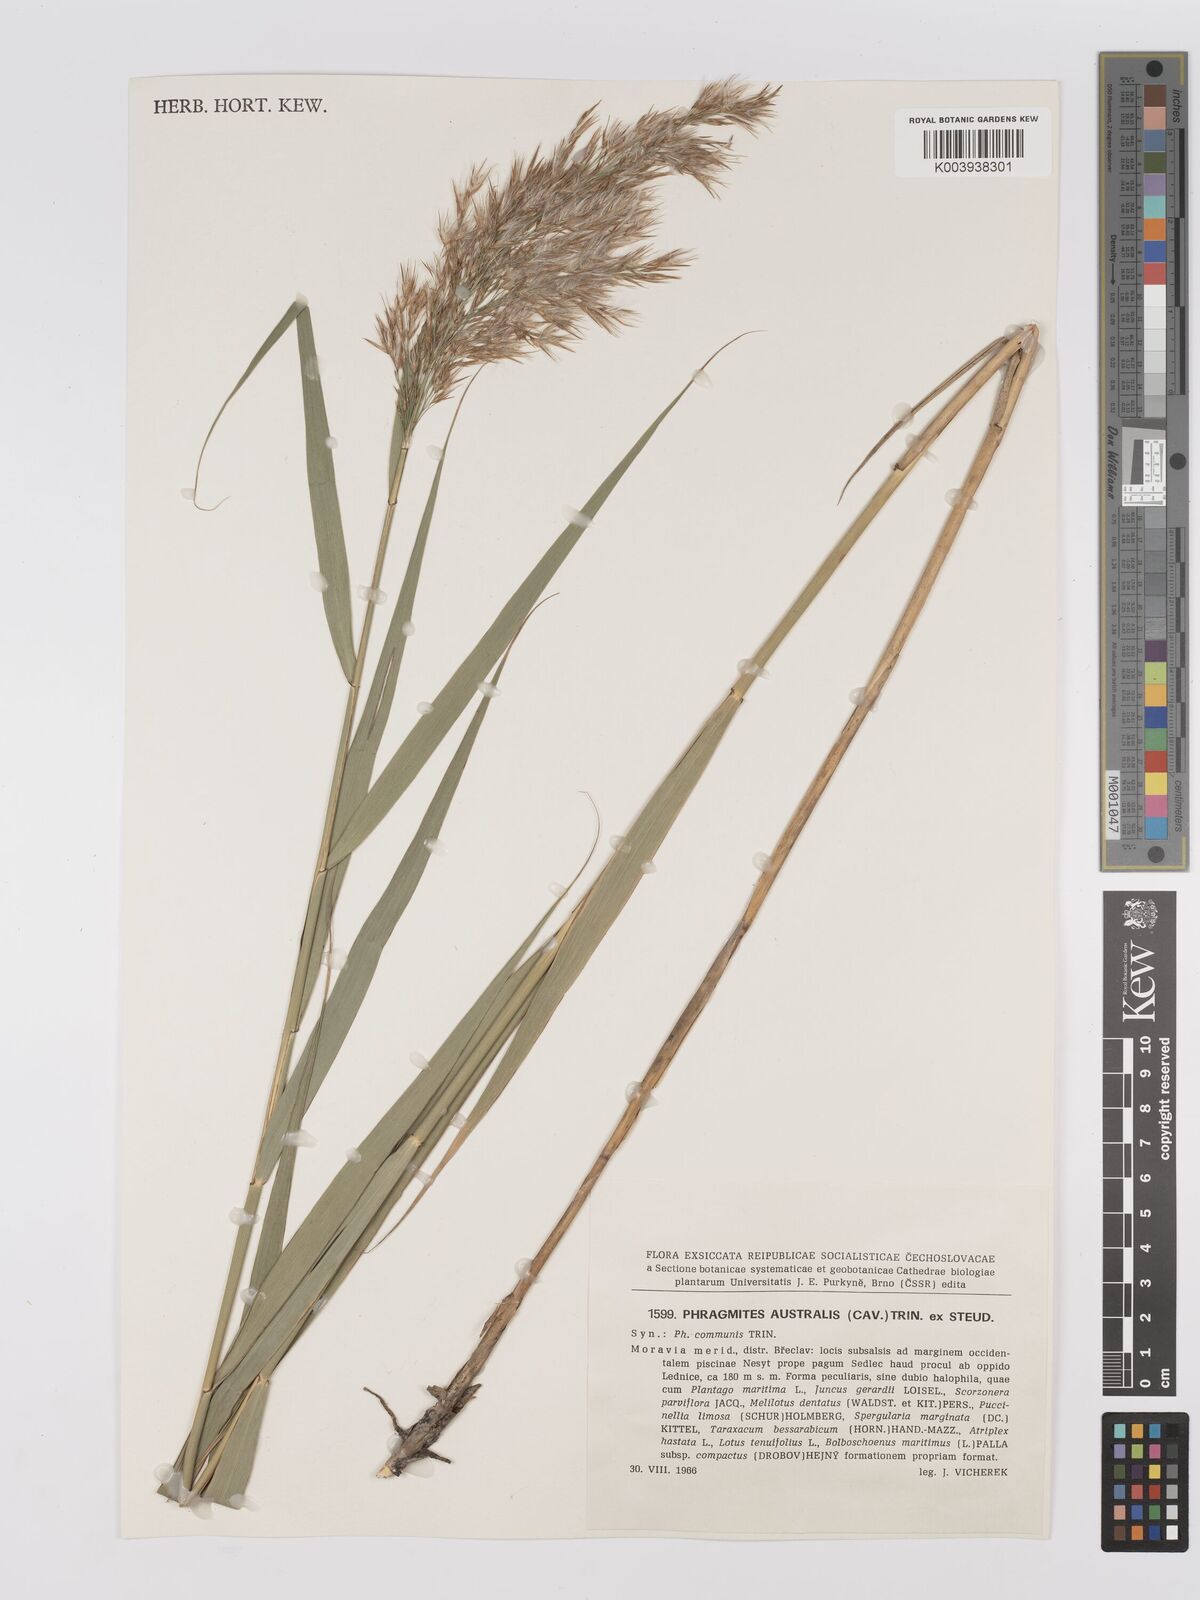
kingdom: Plantae
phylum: Tracheophyta
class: Liliopsida
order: Poales
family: Poaceae
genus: Phragmites
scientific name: Phragmites australis
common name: Common reed
